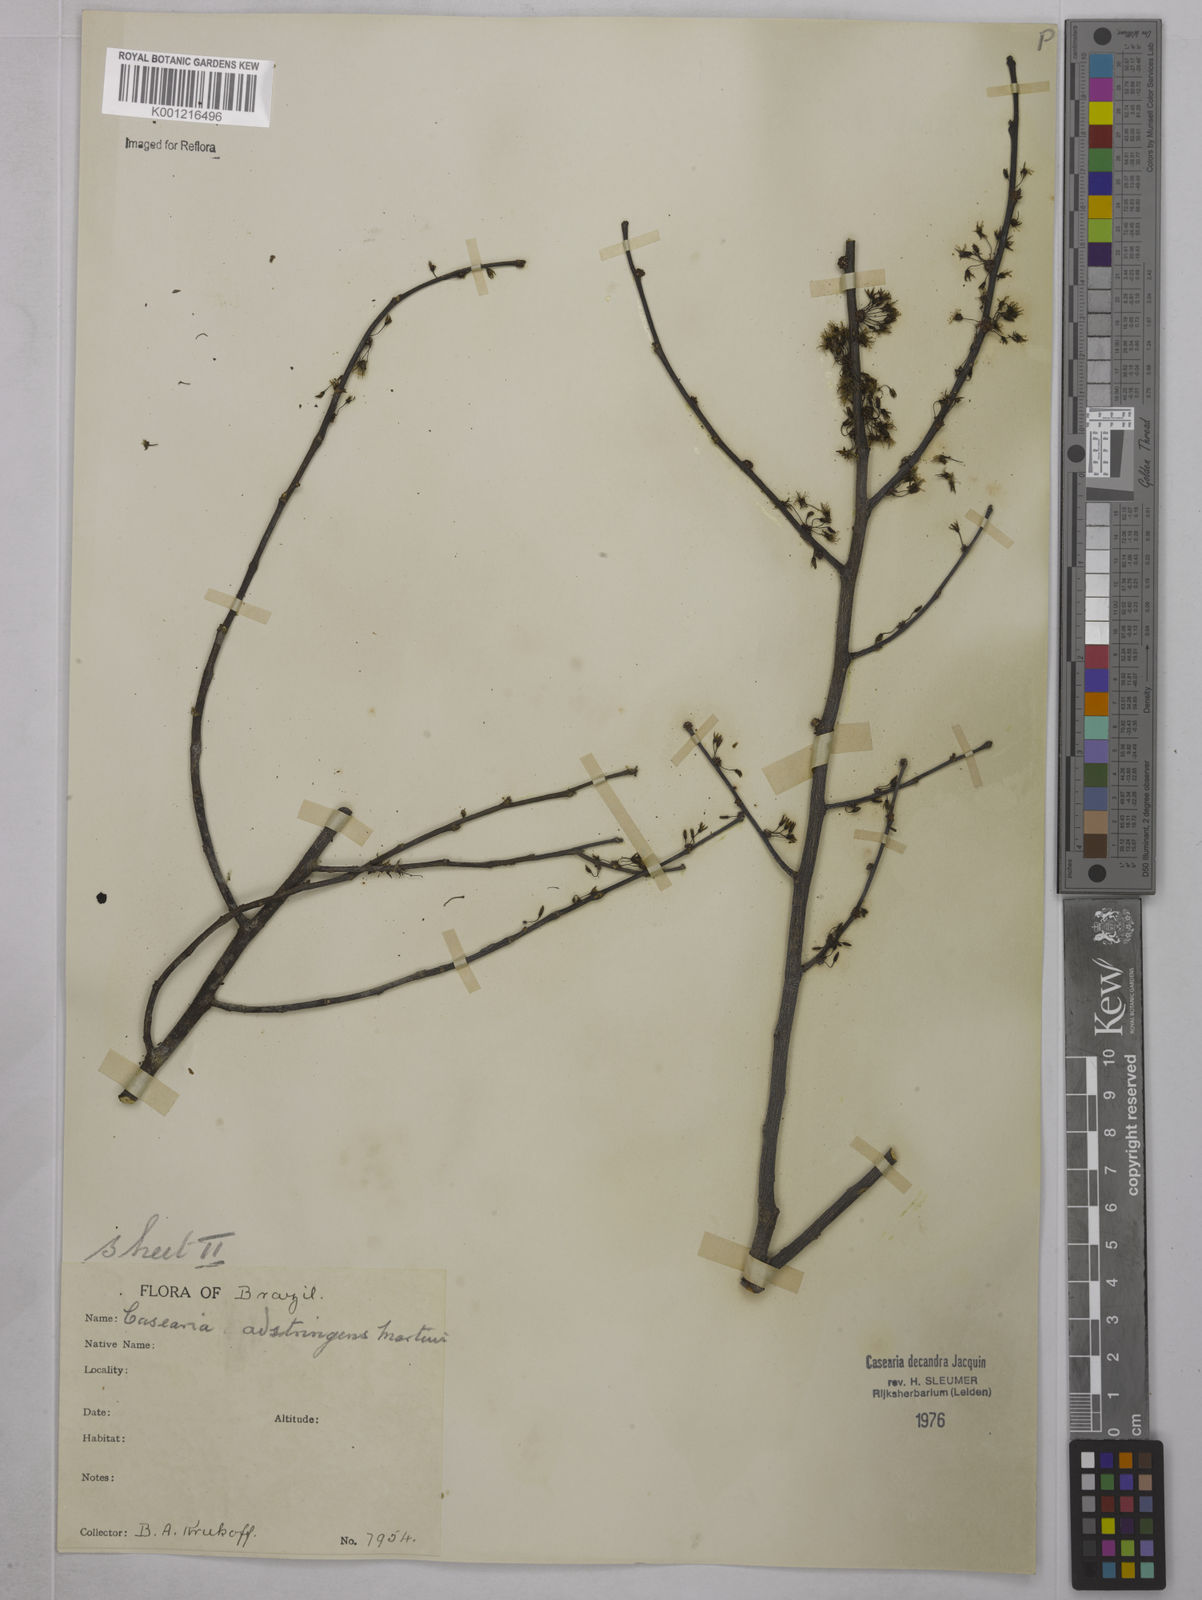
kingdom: Plantae
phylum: Tracheophyta
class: Magnoliopsida
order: Malpighiales
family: Salicaceae
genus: Casearia
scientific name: Casearia decandra
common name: Crack open
